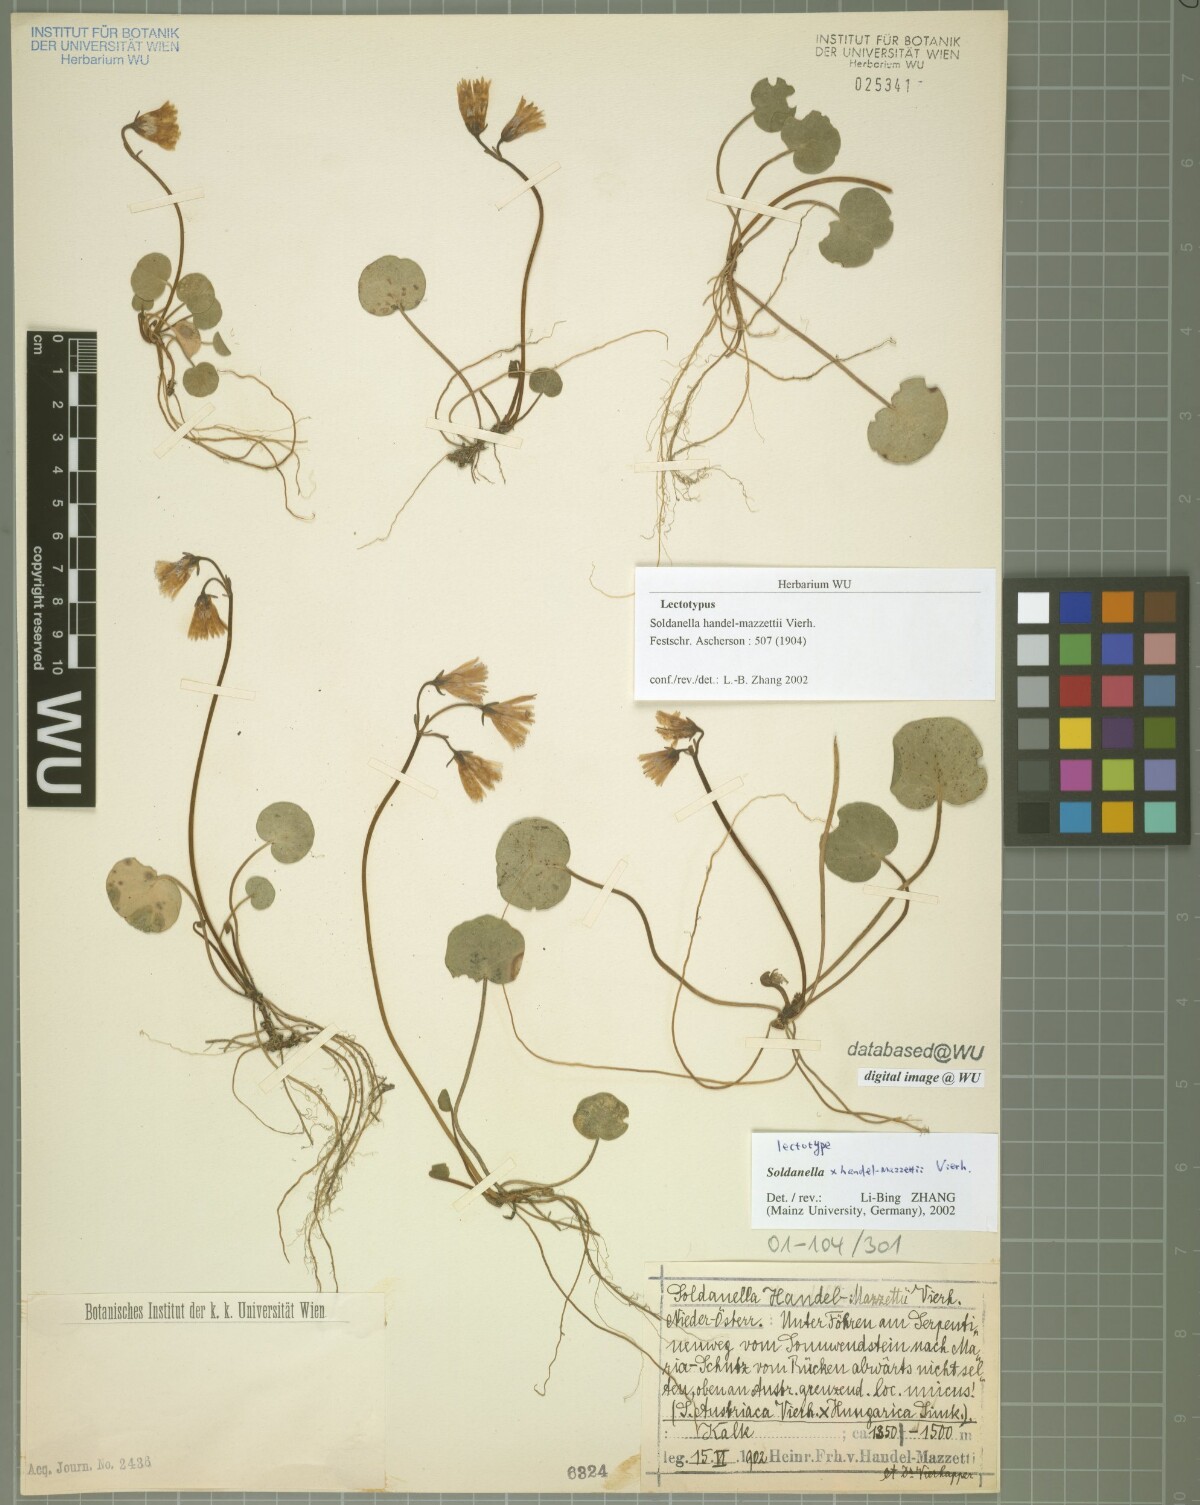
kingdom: Plantae
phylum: Tracheophyta
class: Magnoliopsida
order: Ericales
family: Primulaceae
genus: Soldanella
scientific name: Soldanella handel-mazzettii
